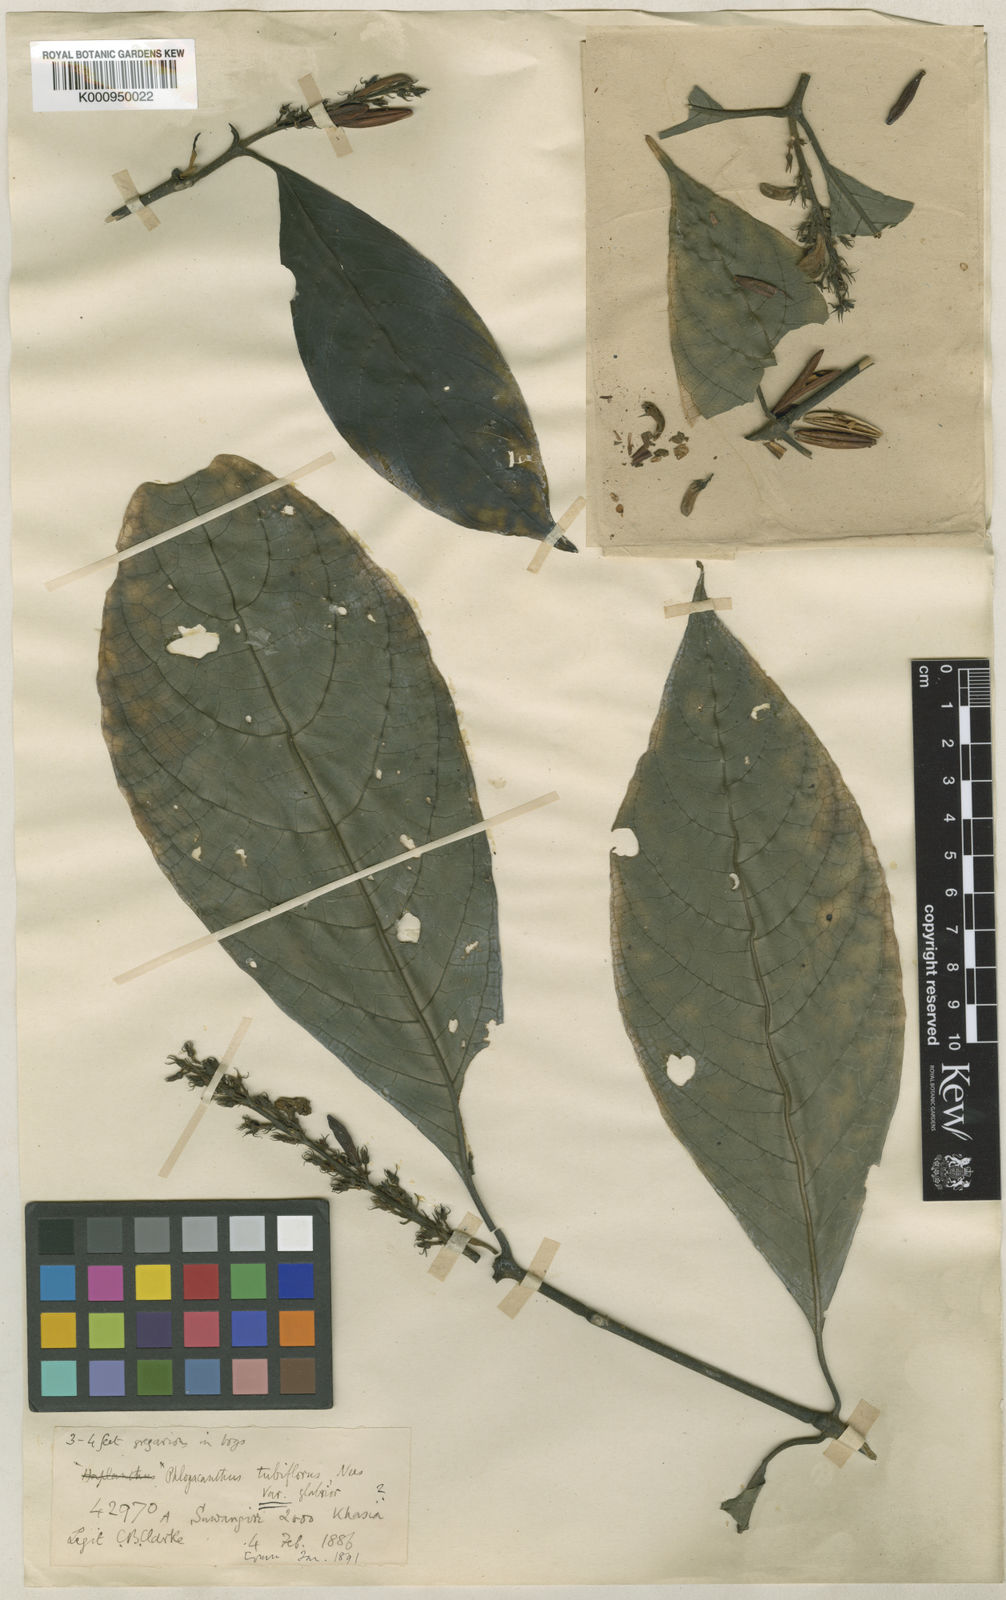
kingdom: Plantae
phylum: Tracheophyta
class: Magnoliopsida
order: Lamiales
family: Acanthaceae
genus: Phlogacanthus
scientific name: Phlogacanthus tubiflorus
